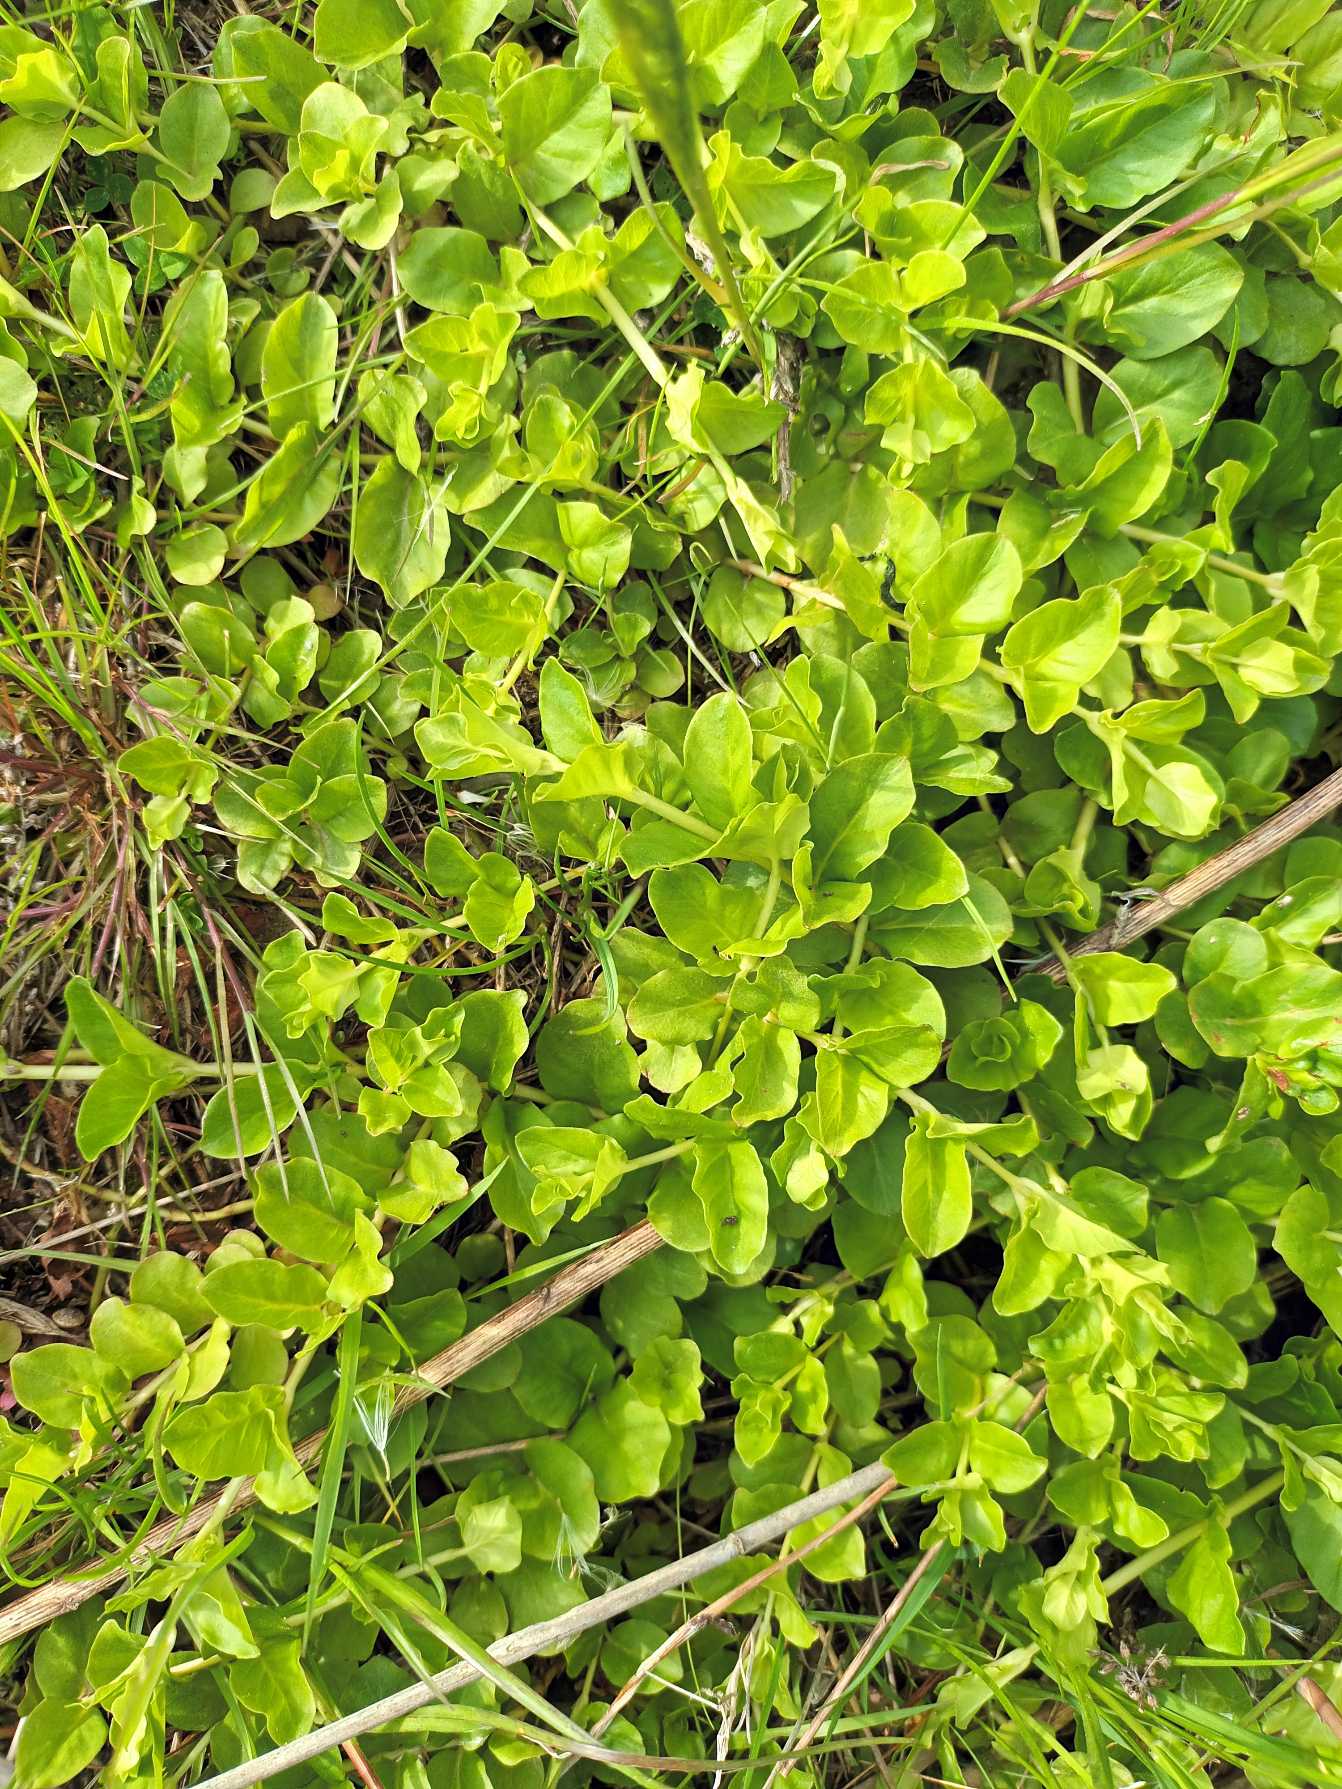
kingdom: Plantae
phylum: Tracheophyta
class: Magnoliopsida
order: Ericales
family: Primulaceae
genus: Lysimachia
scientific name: Lysimachia nummularia
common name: Pengebladet fredløs
